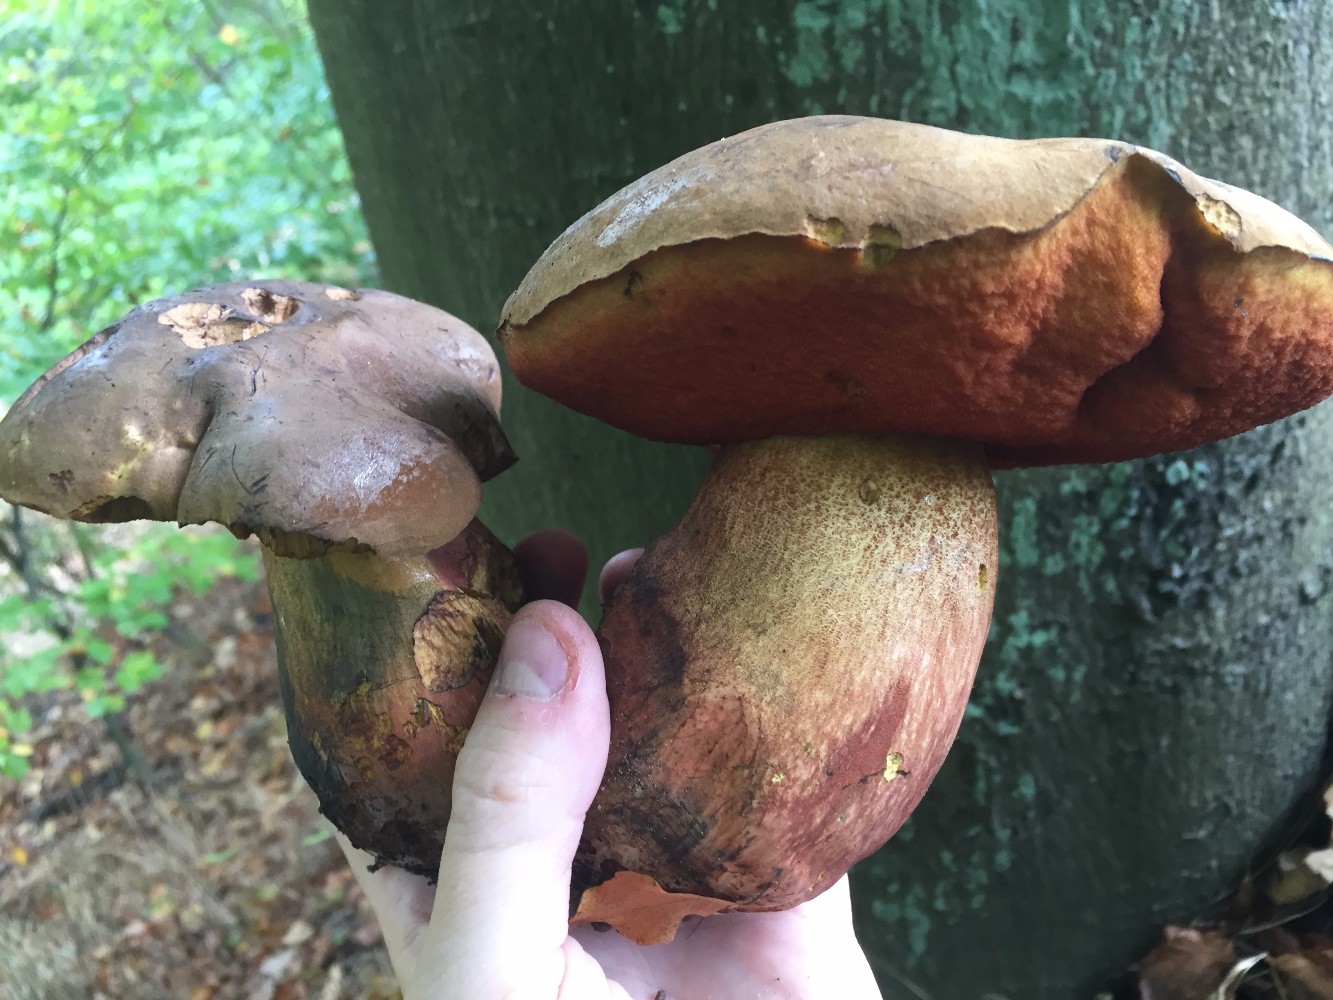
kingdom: Fungi
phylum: Basidiomycota
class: Agaricomycetes
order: Boletales
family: Boletaceae
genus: Neoboletus
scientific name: Neoboletus erythropus
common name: punktstokket indigorørhat
